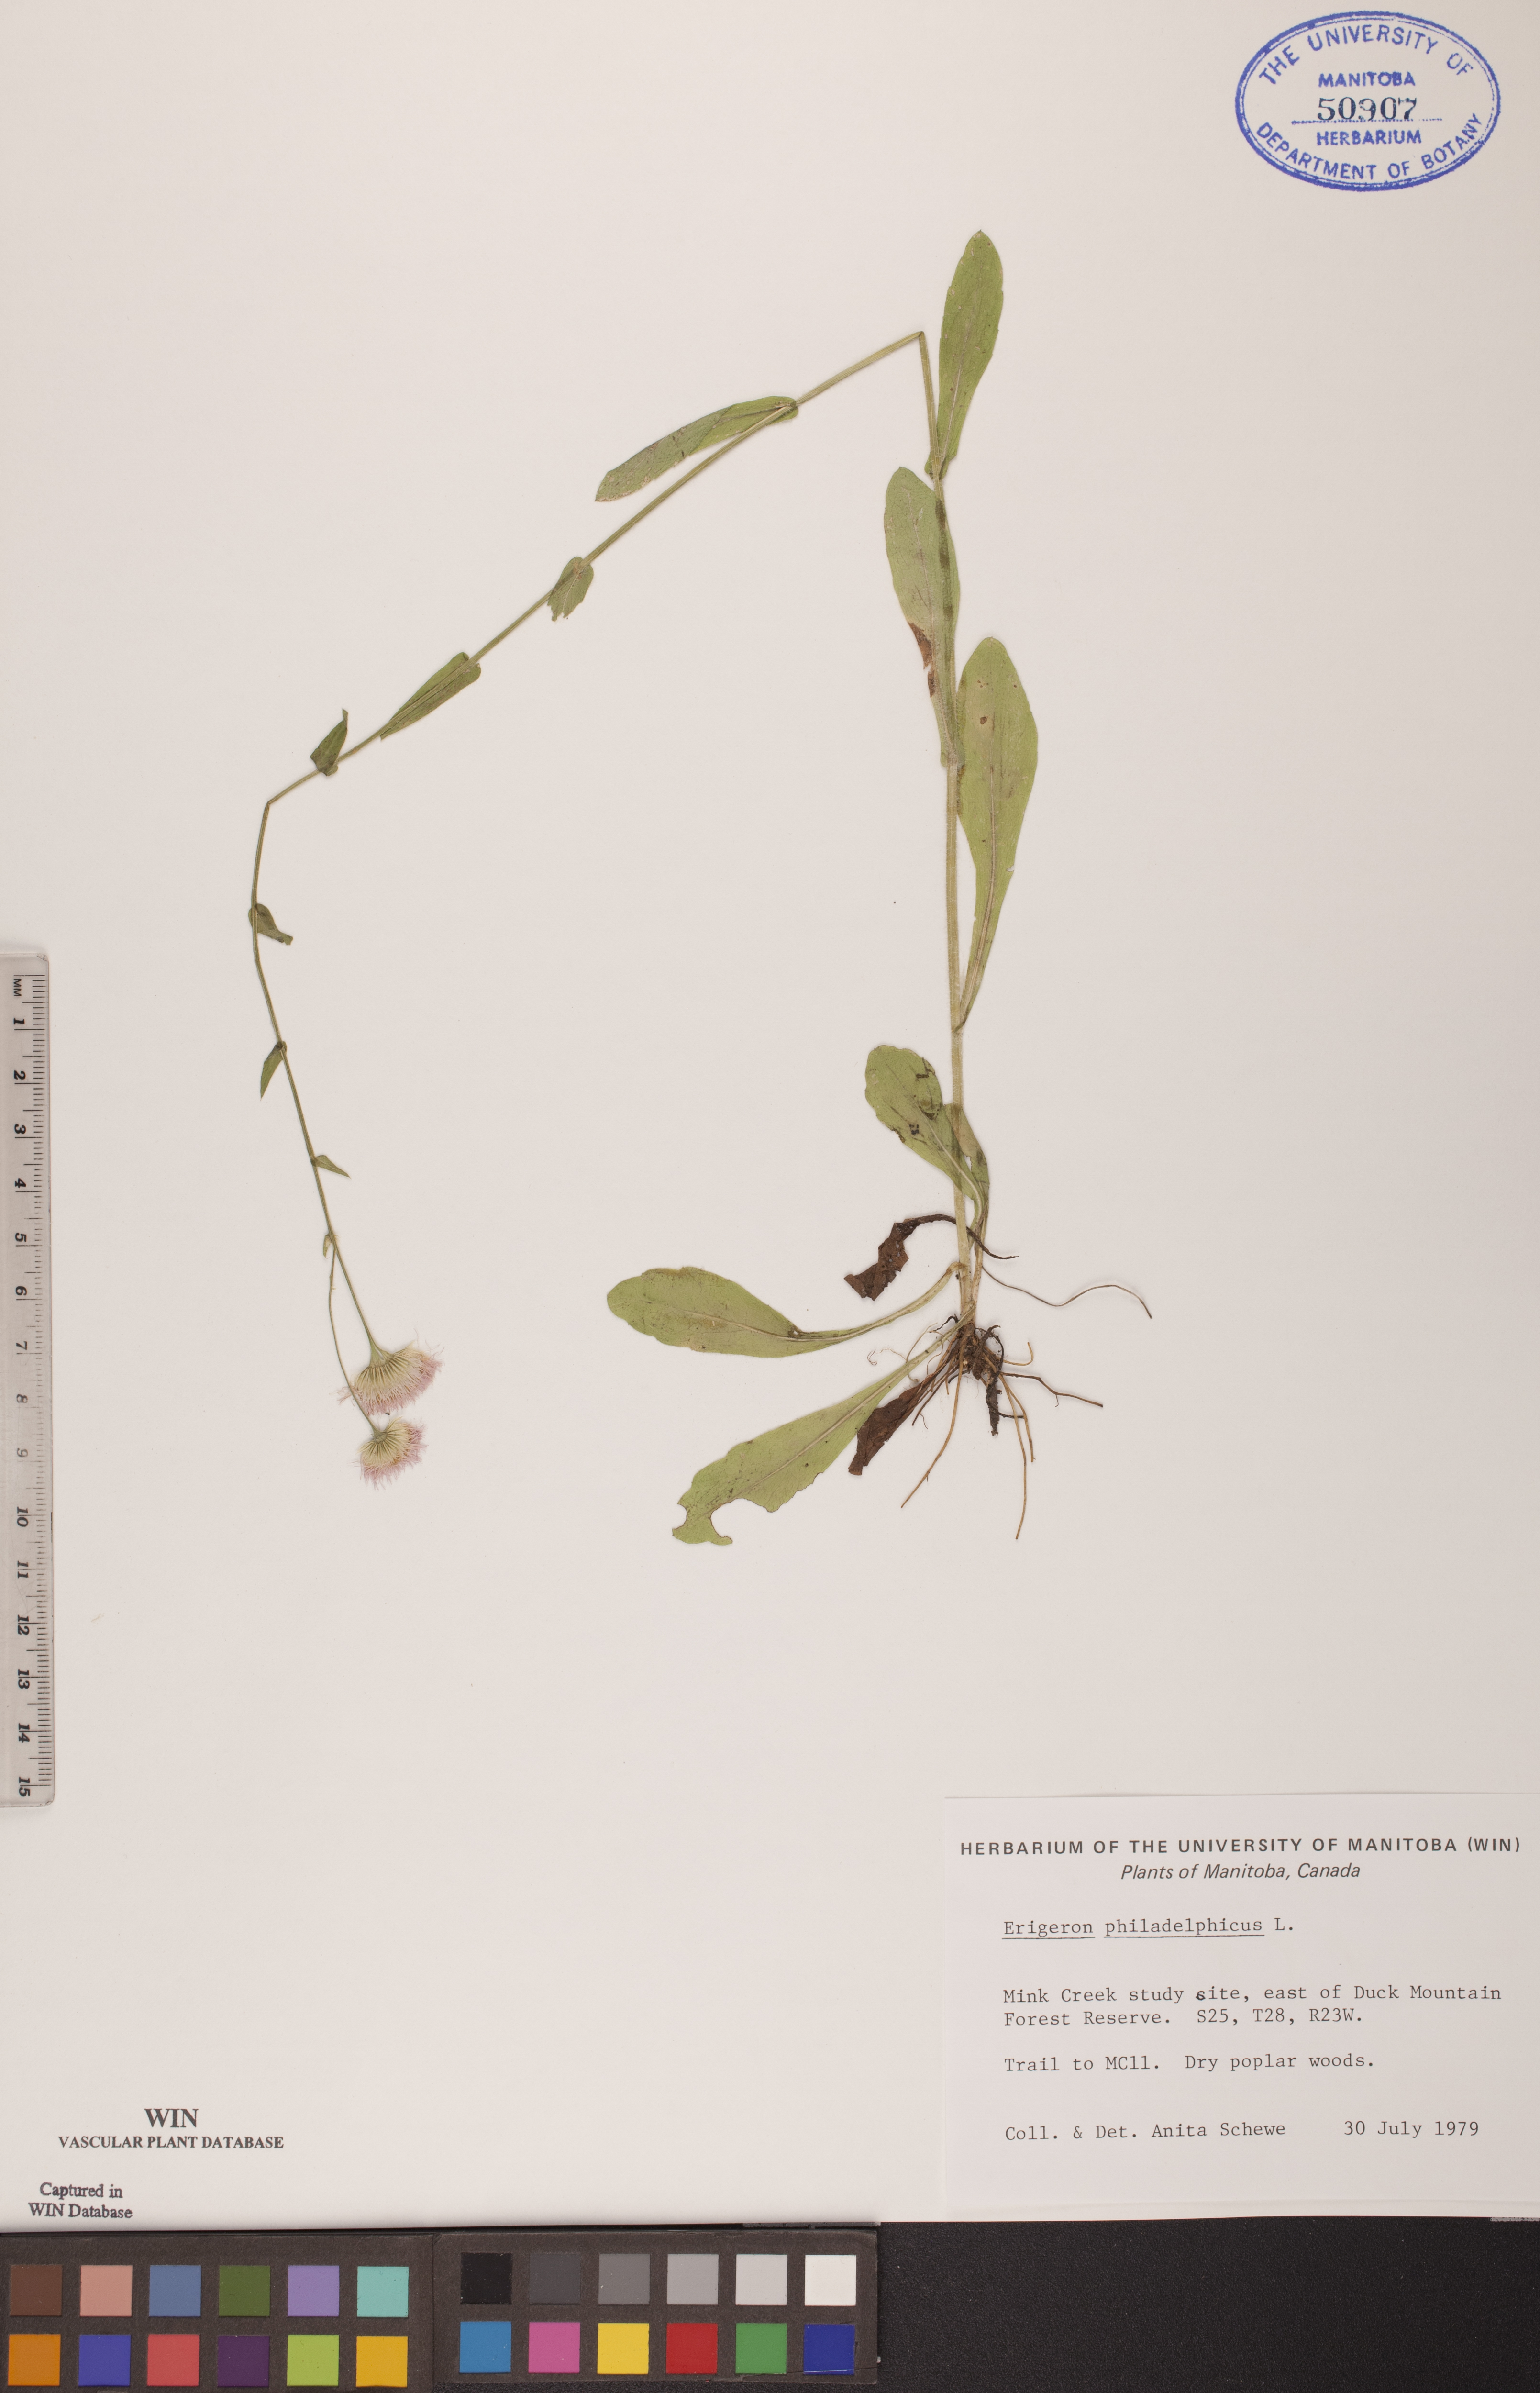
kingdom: Plantae
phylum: Tracheophyta
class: Magnoliopsida
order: Asterales
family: Asteraceae
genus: Erigeron
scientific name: Erigeron philadelphicus
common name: Robin's-plantain
